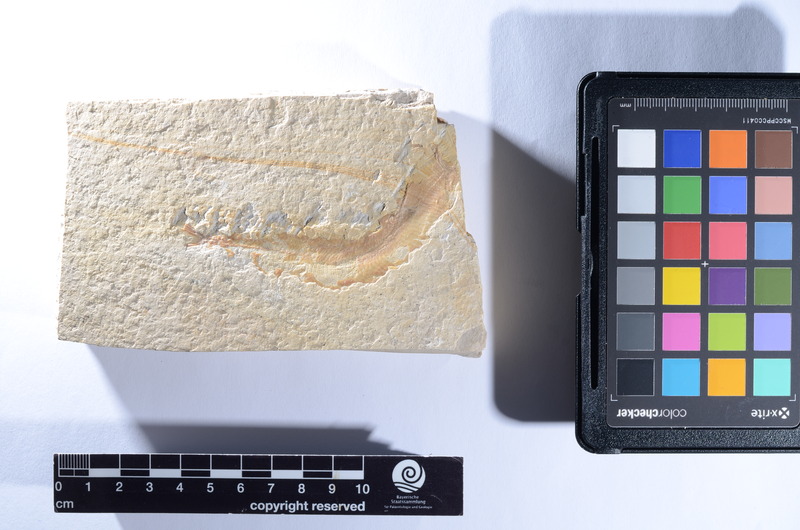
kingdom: Animalia
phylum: Chordata
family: Aspidorhynchidae
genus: Belonostomus
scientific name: Belonostomus
